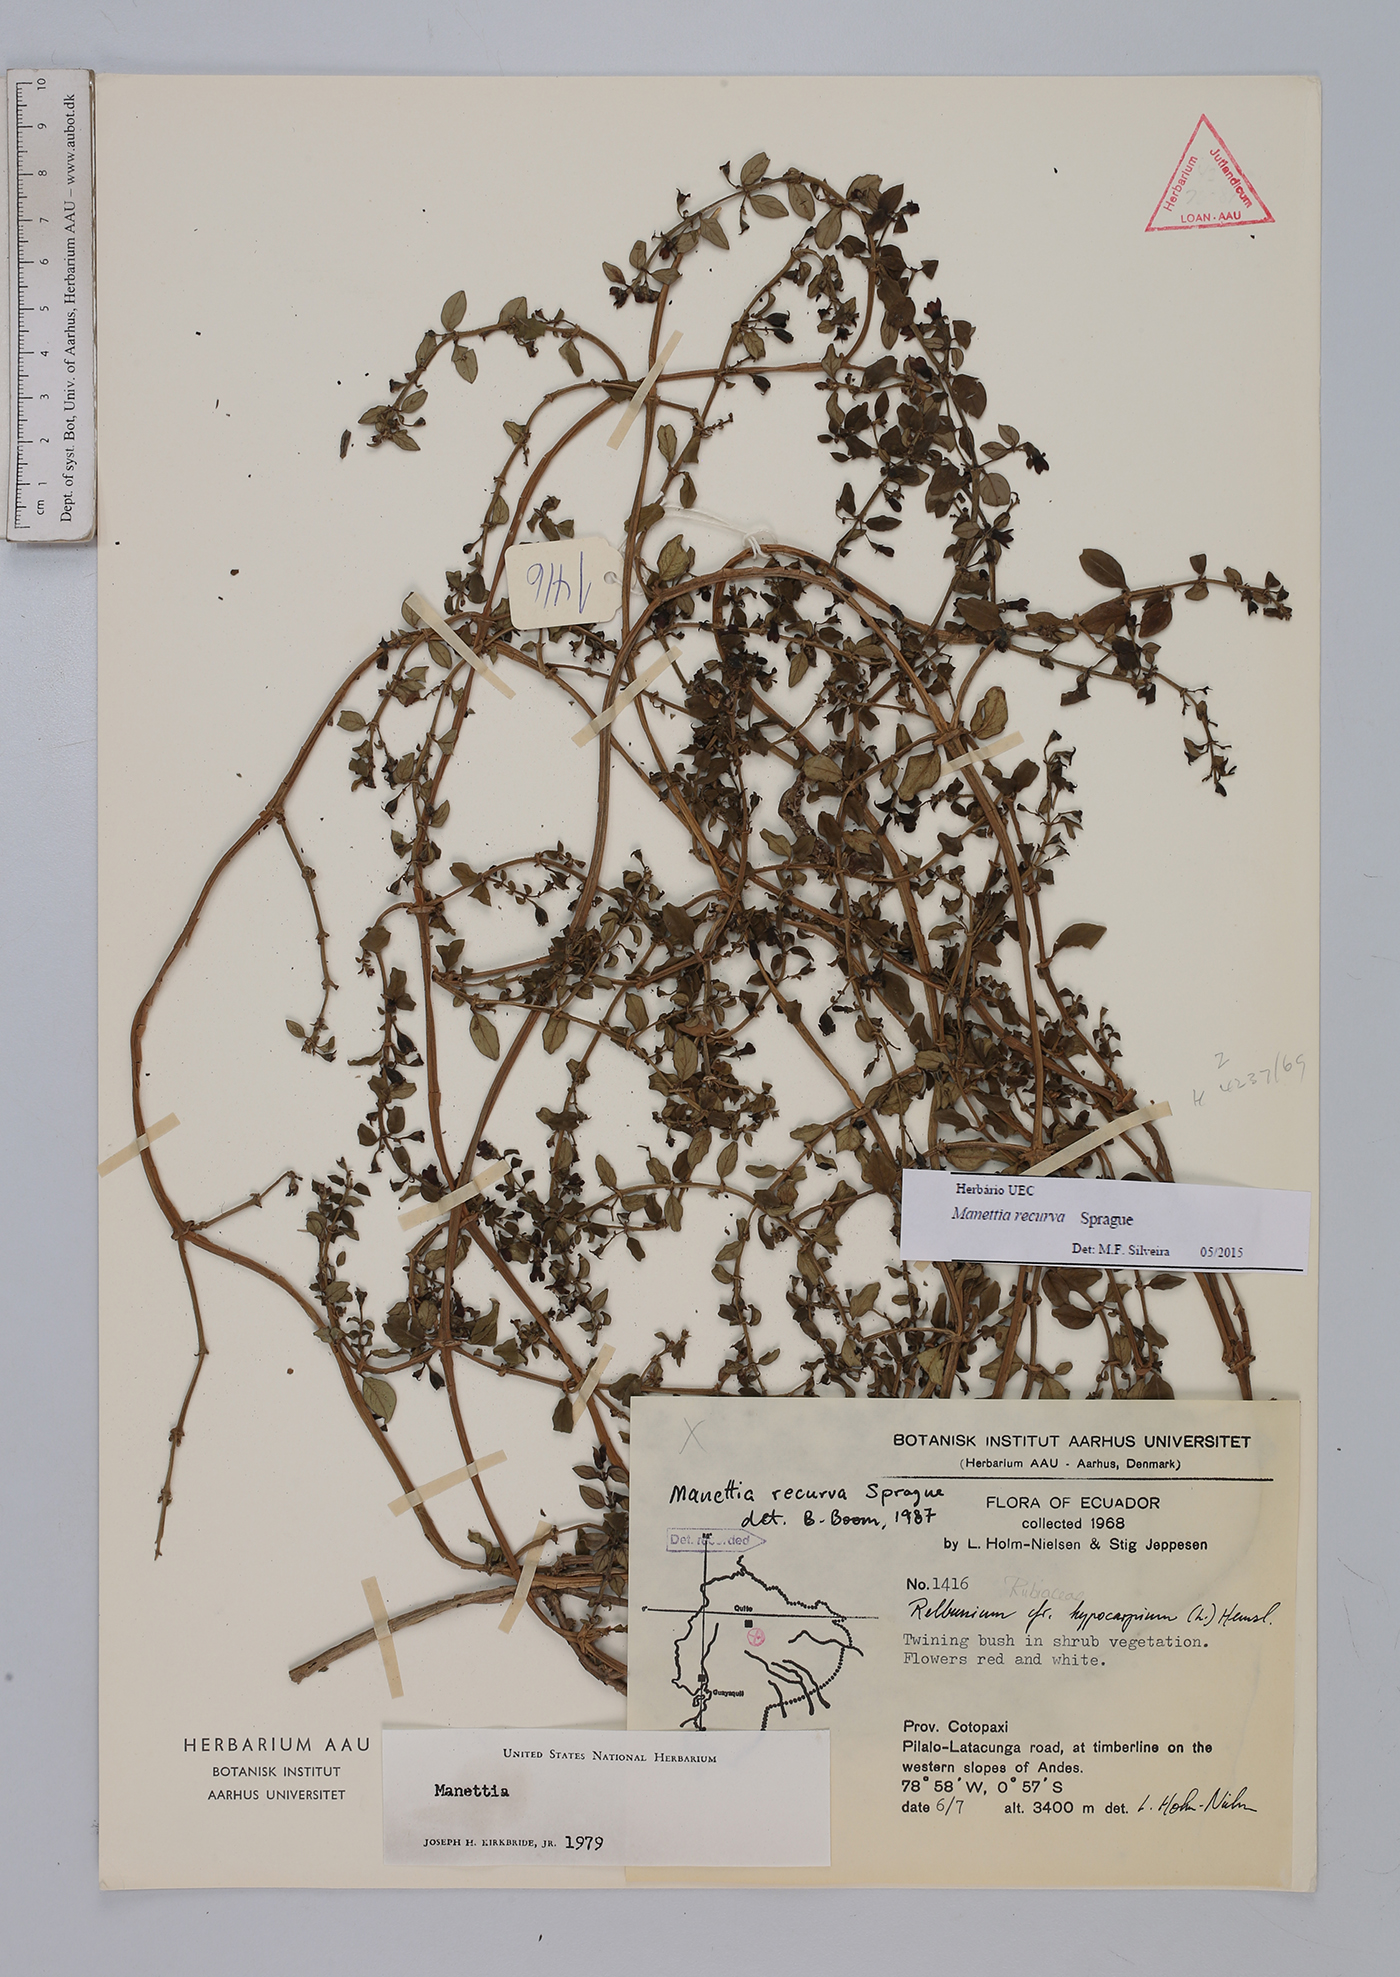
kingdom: Plantae
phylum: Tracheophyta
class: Magnoliopsida
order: Gentianales
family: Rubiaceae
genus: Manettia
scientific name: Manettia recurva
